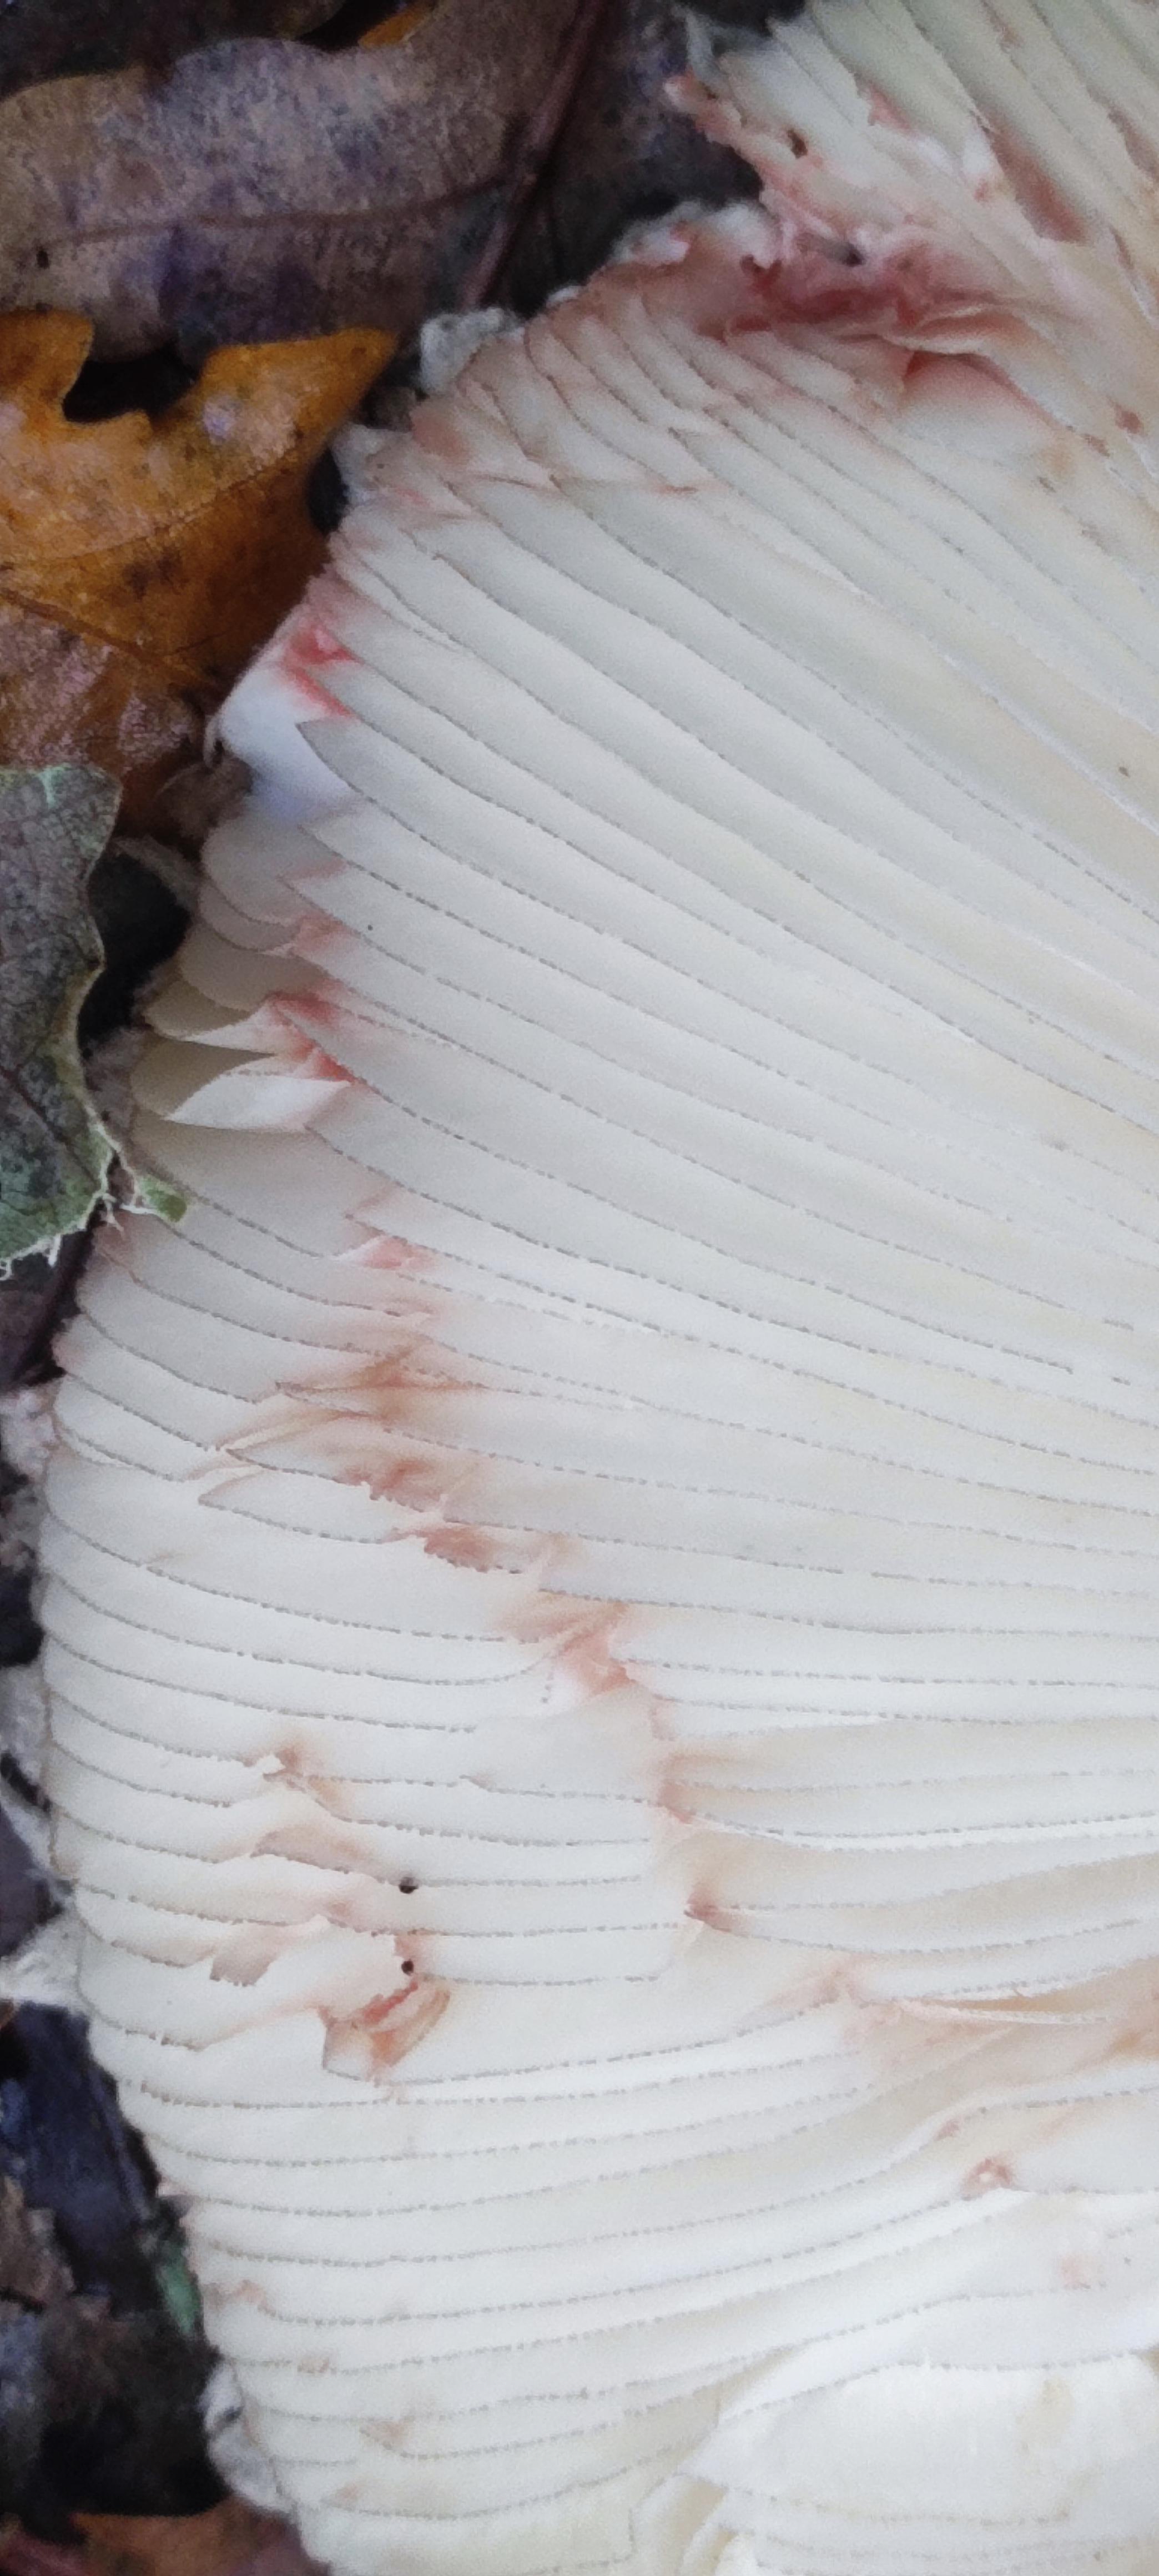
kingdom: Fungi
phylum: Basidiomycota
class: Agaricomycetes
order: Agaricales
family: Agaricaceae
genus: Chlorophyllum
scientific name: Chlorophyllum olivieri
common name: almindelig rabarberhat
